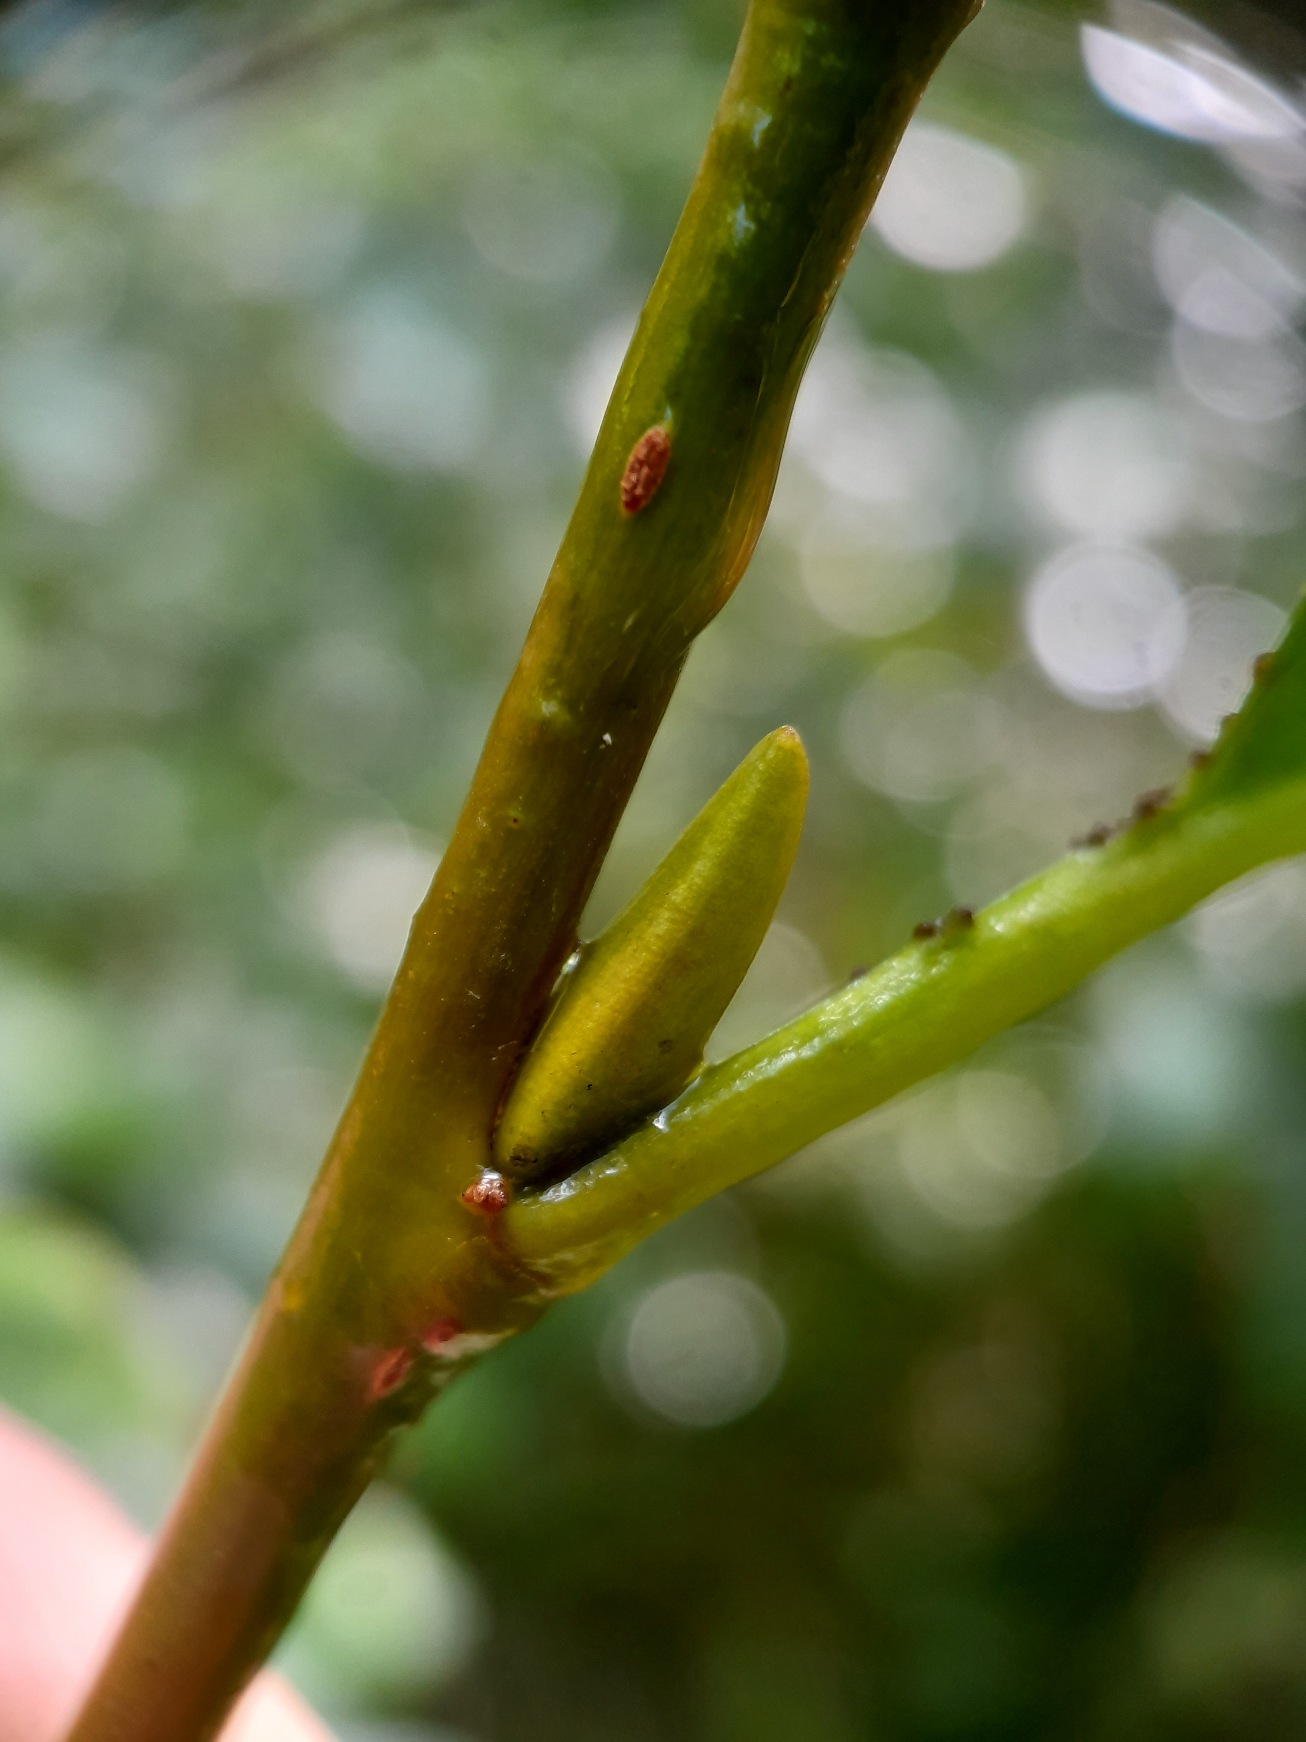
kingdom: Plantae
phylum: Tracheophyta
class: Magnoliopsida
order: Malpighiales
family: Salicaceae
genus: Salix
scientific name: Salix pentandra
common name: Femhannet pil
